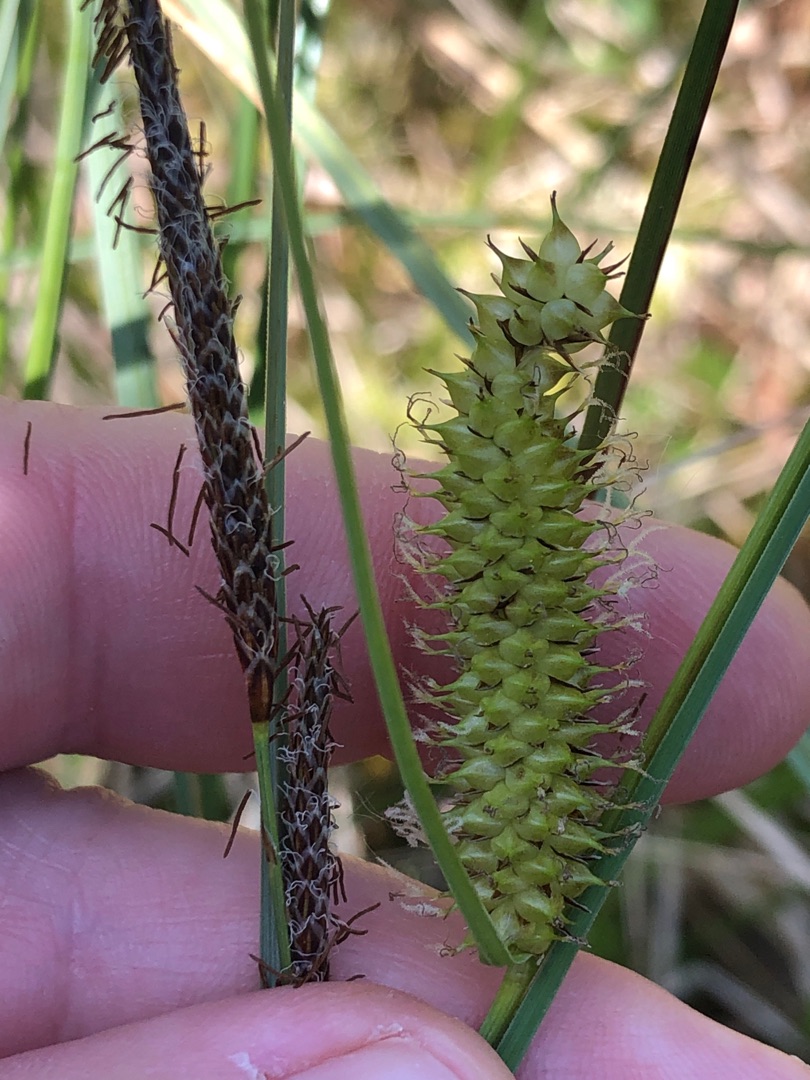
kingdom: Plantae
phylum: Tracheophyta
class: Liliopsida
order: Poales
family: Cyperaceae
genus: Carex
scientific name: Carex rostrata
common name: Næb-star
